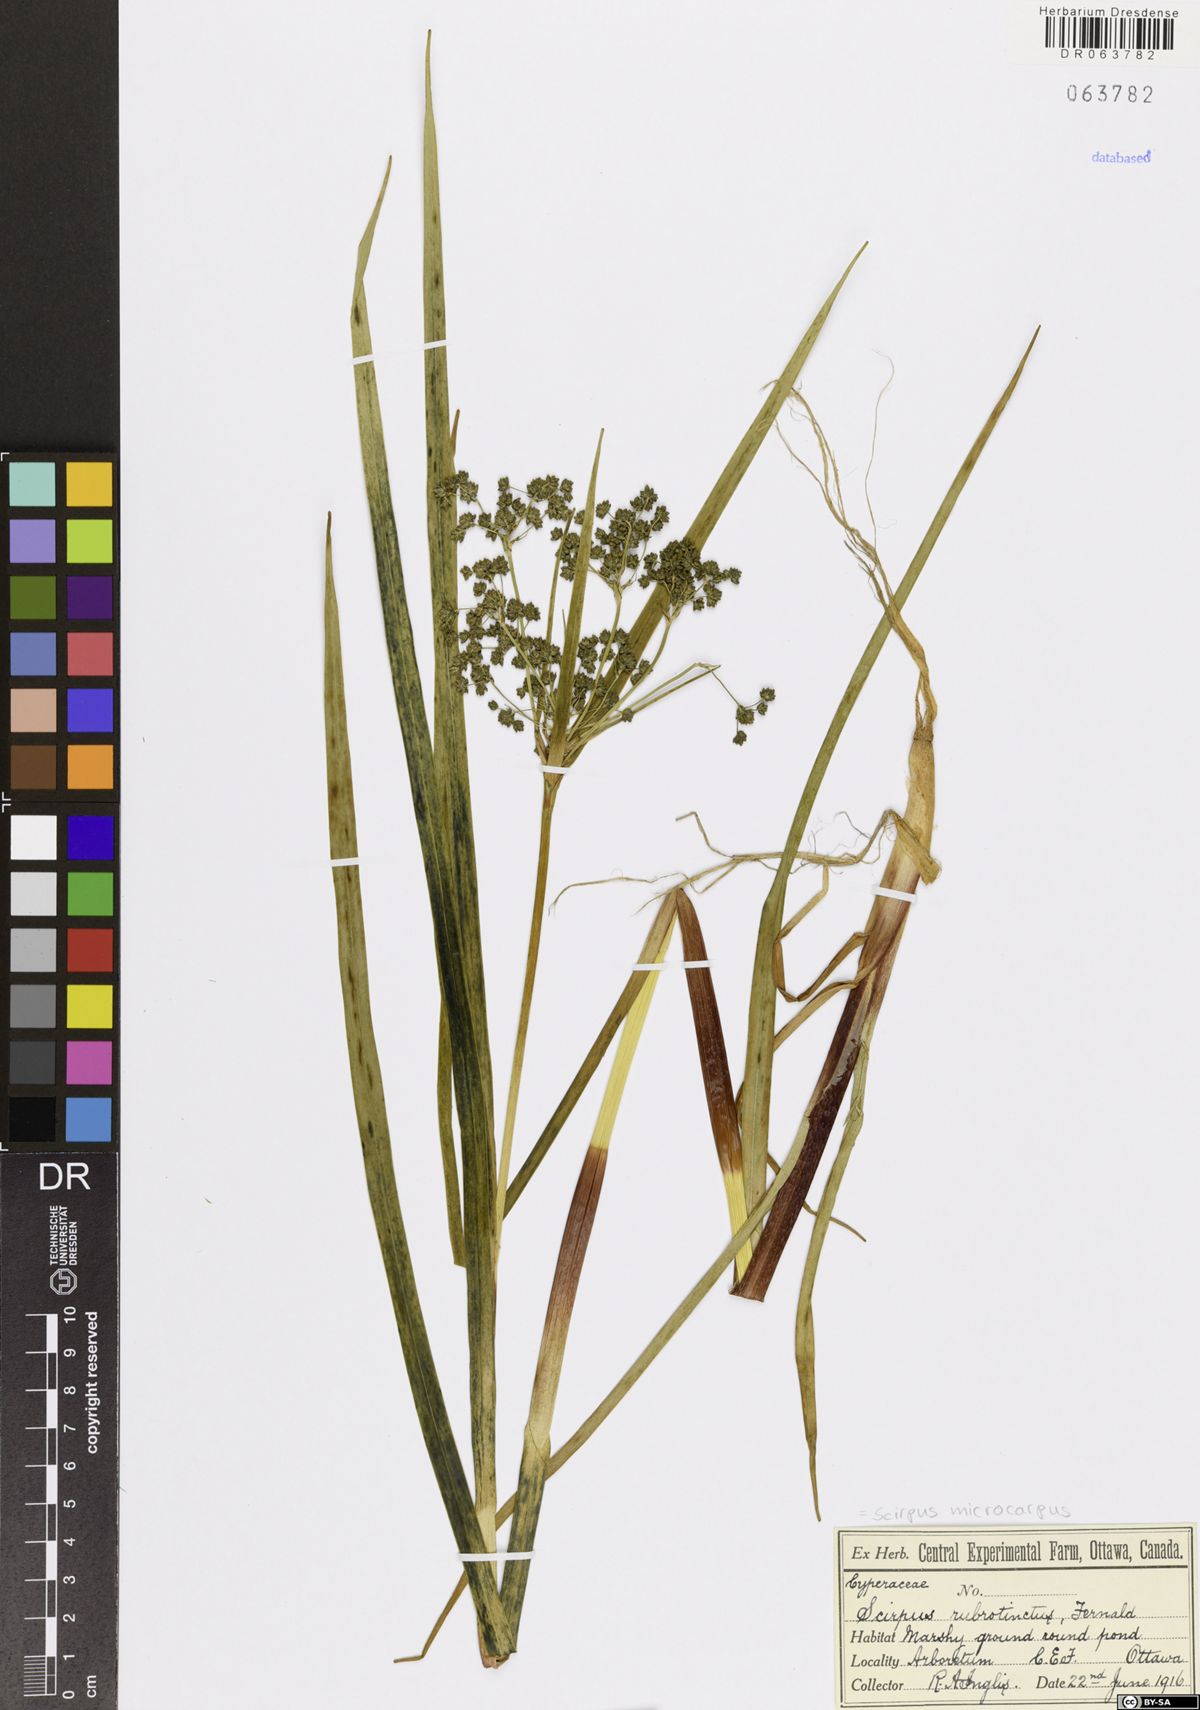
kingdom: Plantae
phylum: Tracheophyta
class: Liliopsida
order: Poales
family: Cyperaceae
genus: Scirpus
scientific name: Scirpus microcarpus
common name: Panicled bulrush
